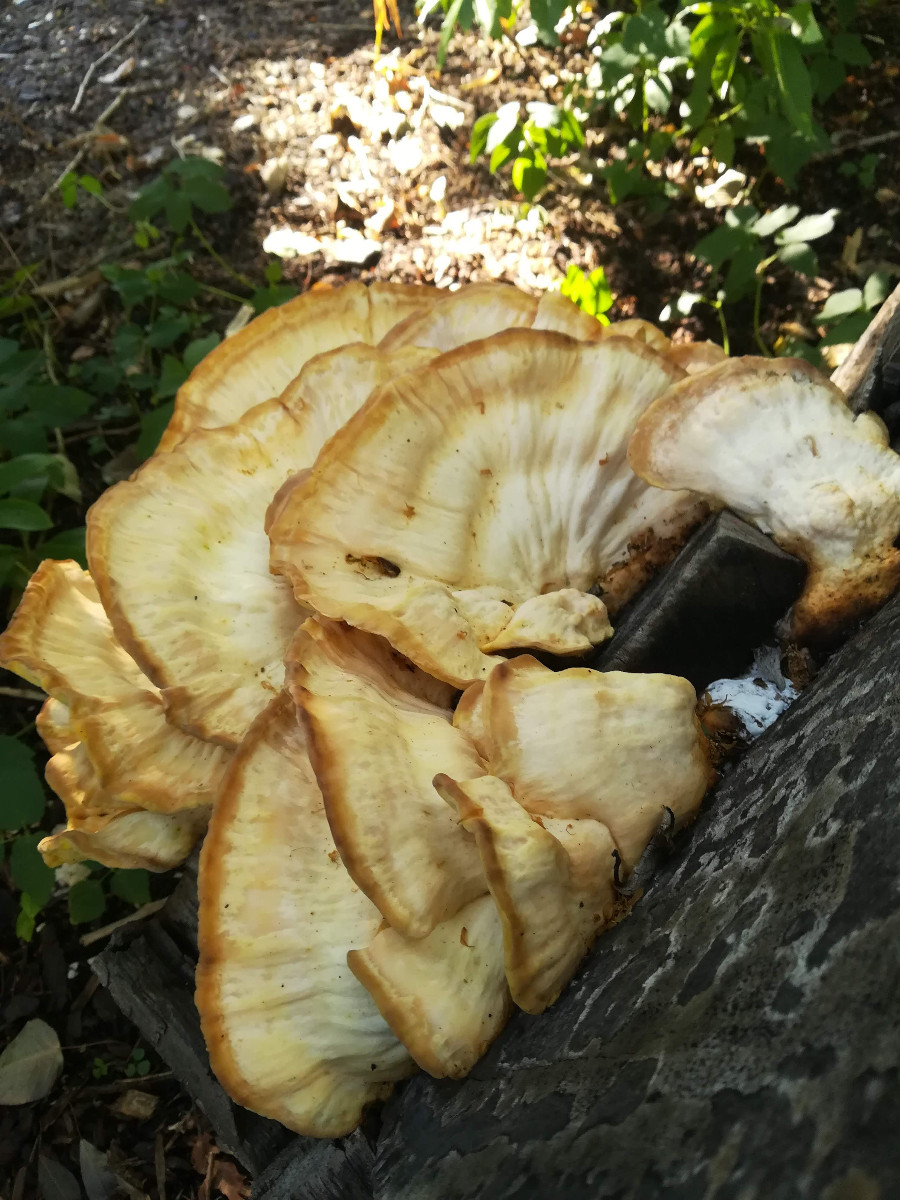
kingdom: Fungi
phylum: Basidiomycota
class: Agaricomycetes
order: Polyporales
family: Laetiporaceae
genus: Laetiporus
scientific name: Laetiporus sulphureus
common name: svovlporesvamp
